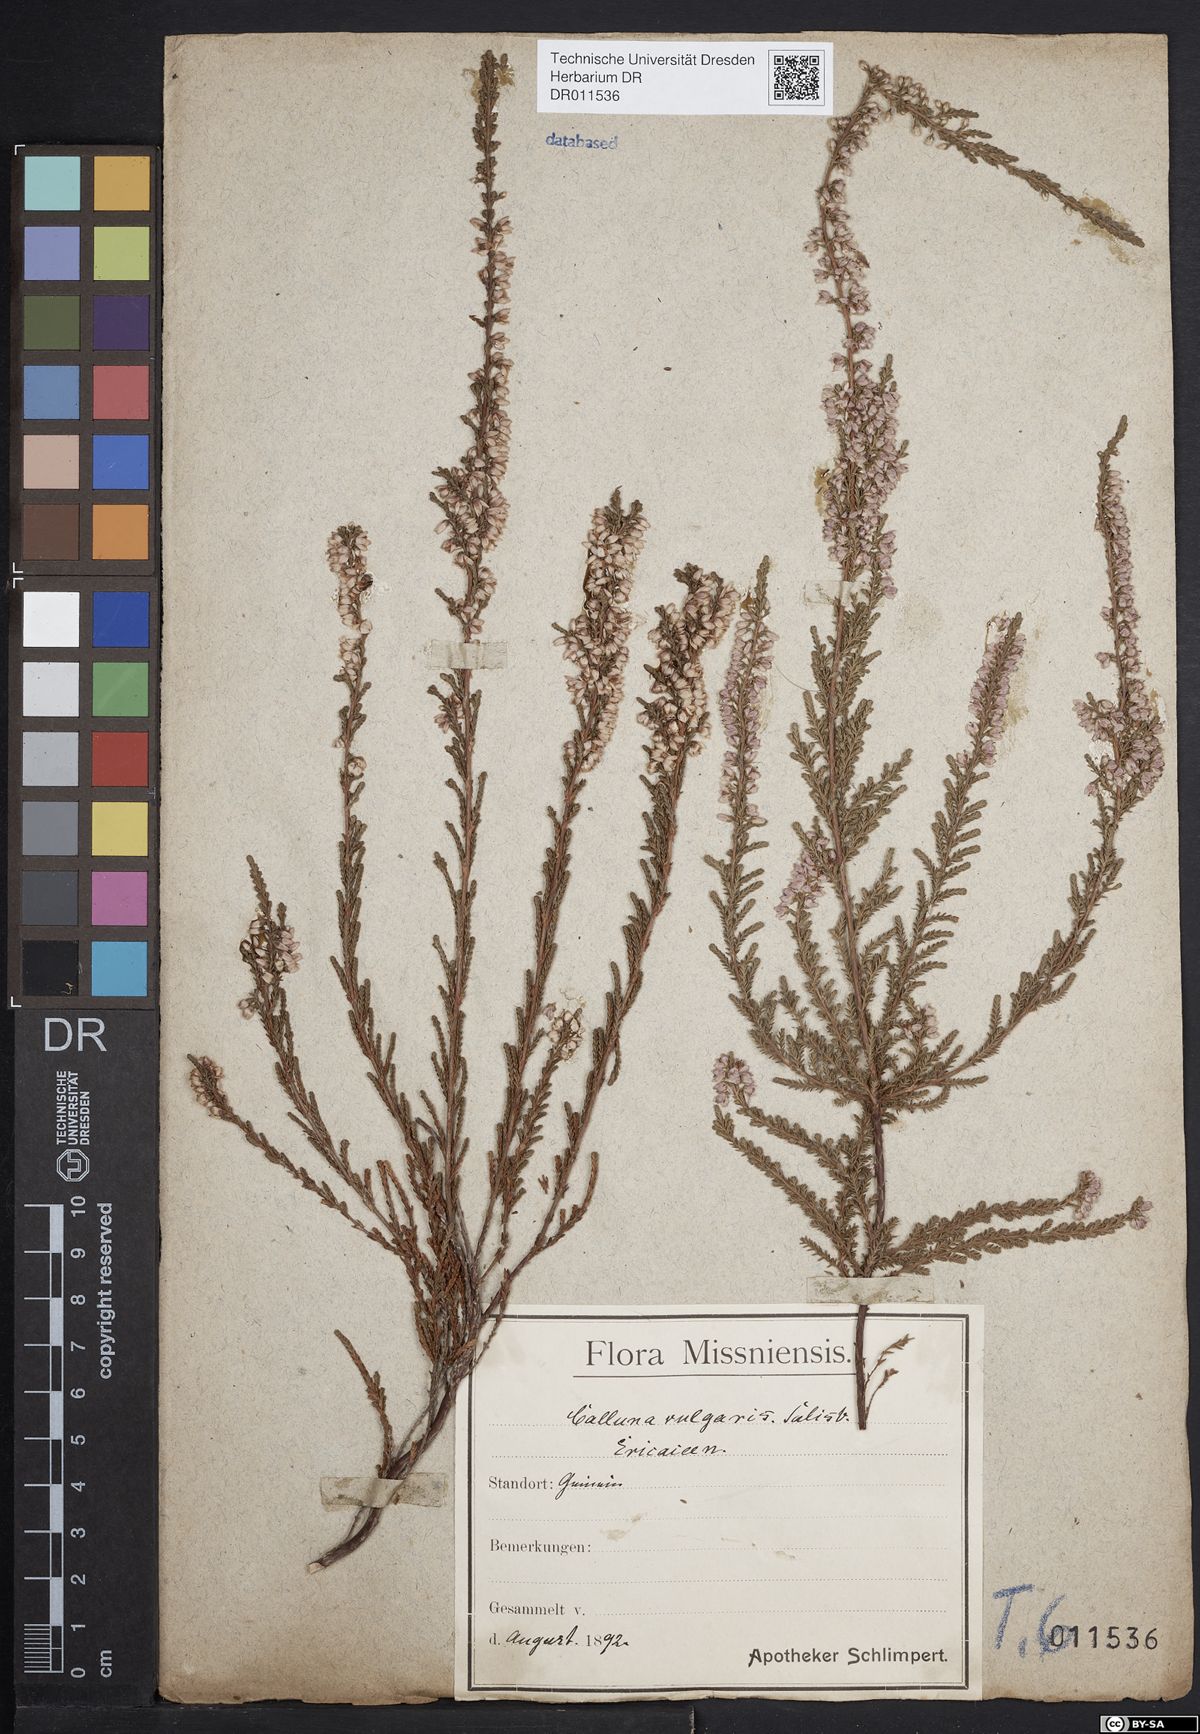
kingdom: Plantae
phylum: Tracheophyta
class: Magnoliopsida
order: Ericales
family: Ericaceae
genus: Calluna
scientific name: Calluna vulgaris
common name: Heather
